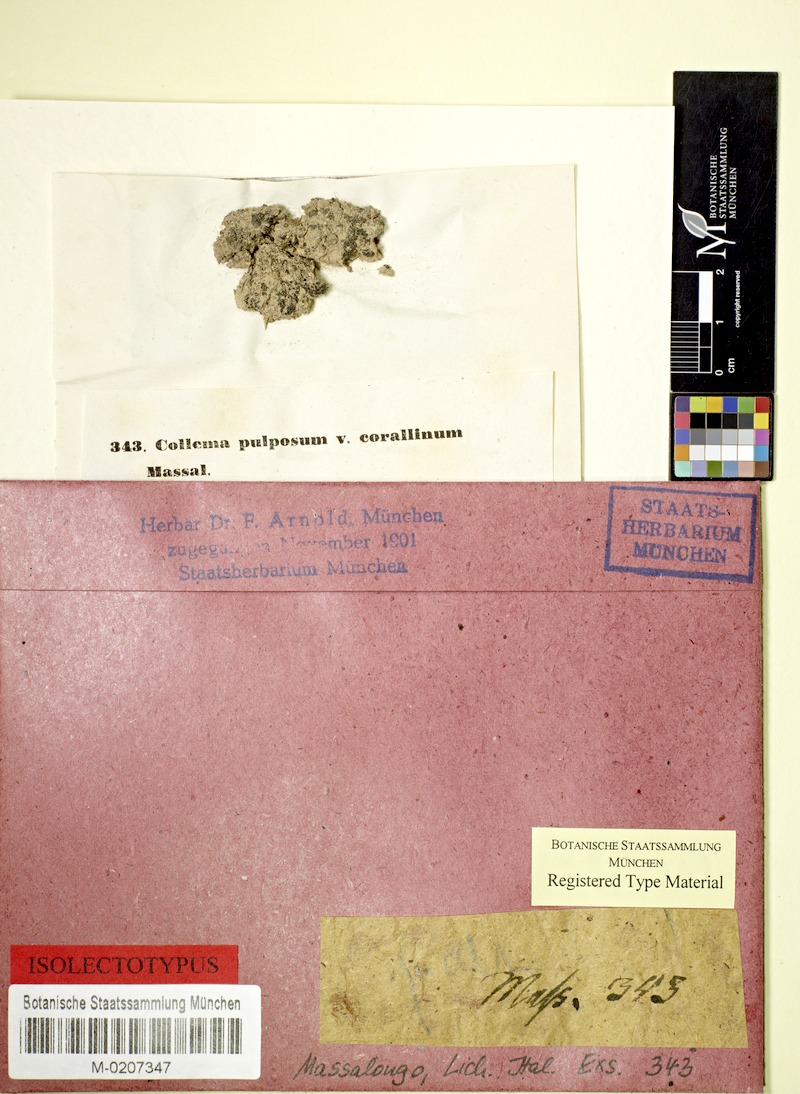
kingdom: Fungi
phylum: Ascomycota
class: Lecanoromycetes
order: Peltigerales
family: Collemataceae
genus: Enchylium
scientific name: Enchylium tenax
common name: Jelly lichen
